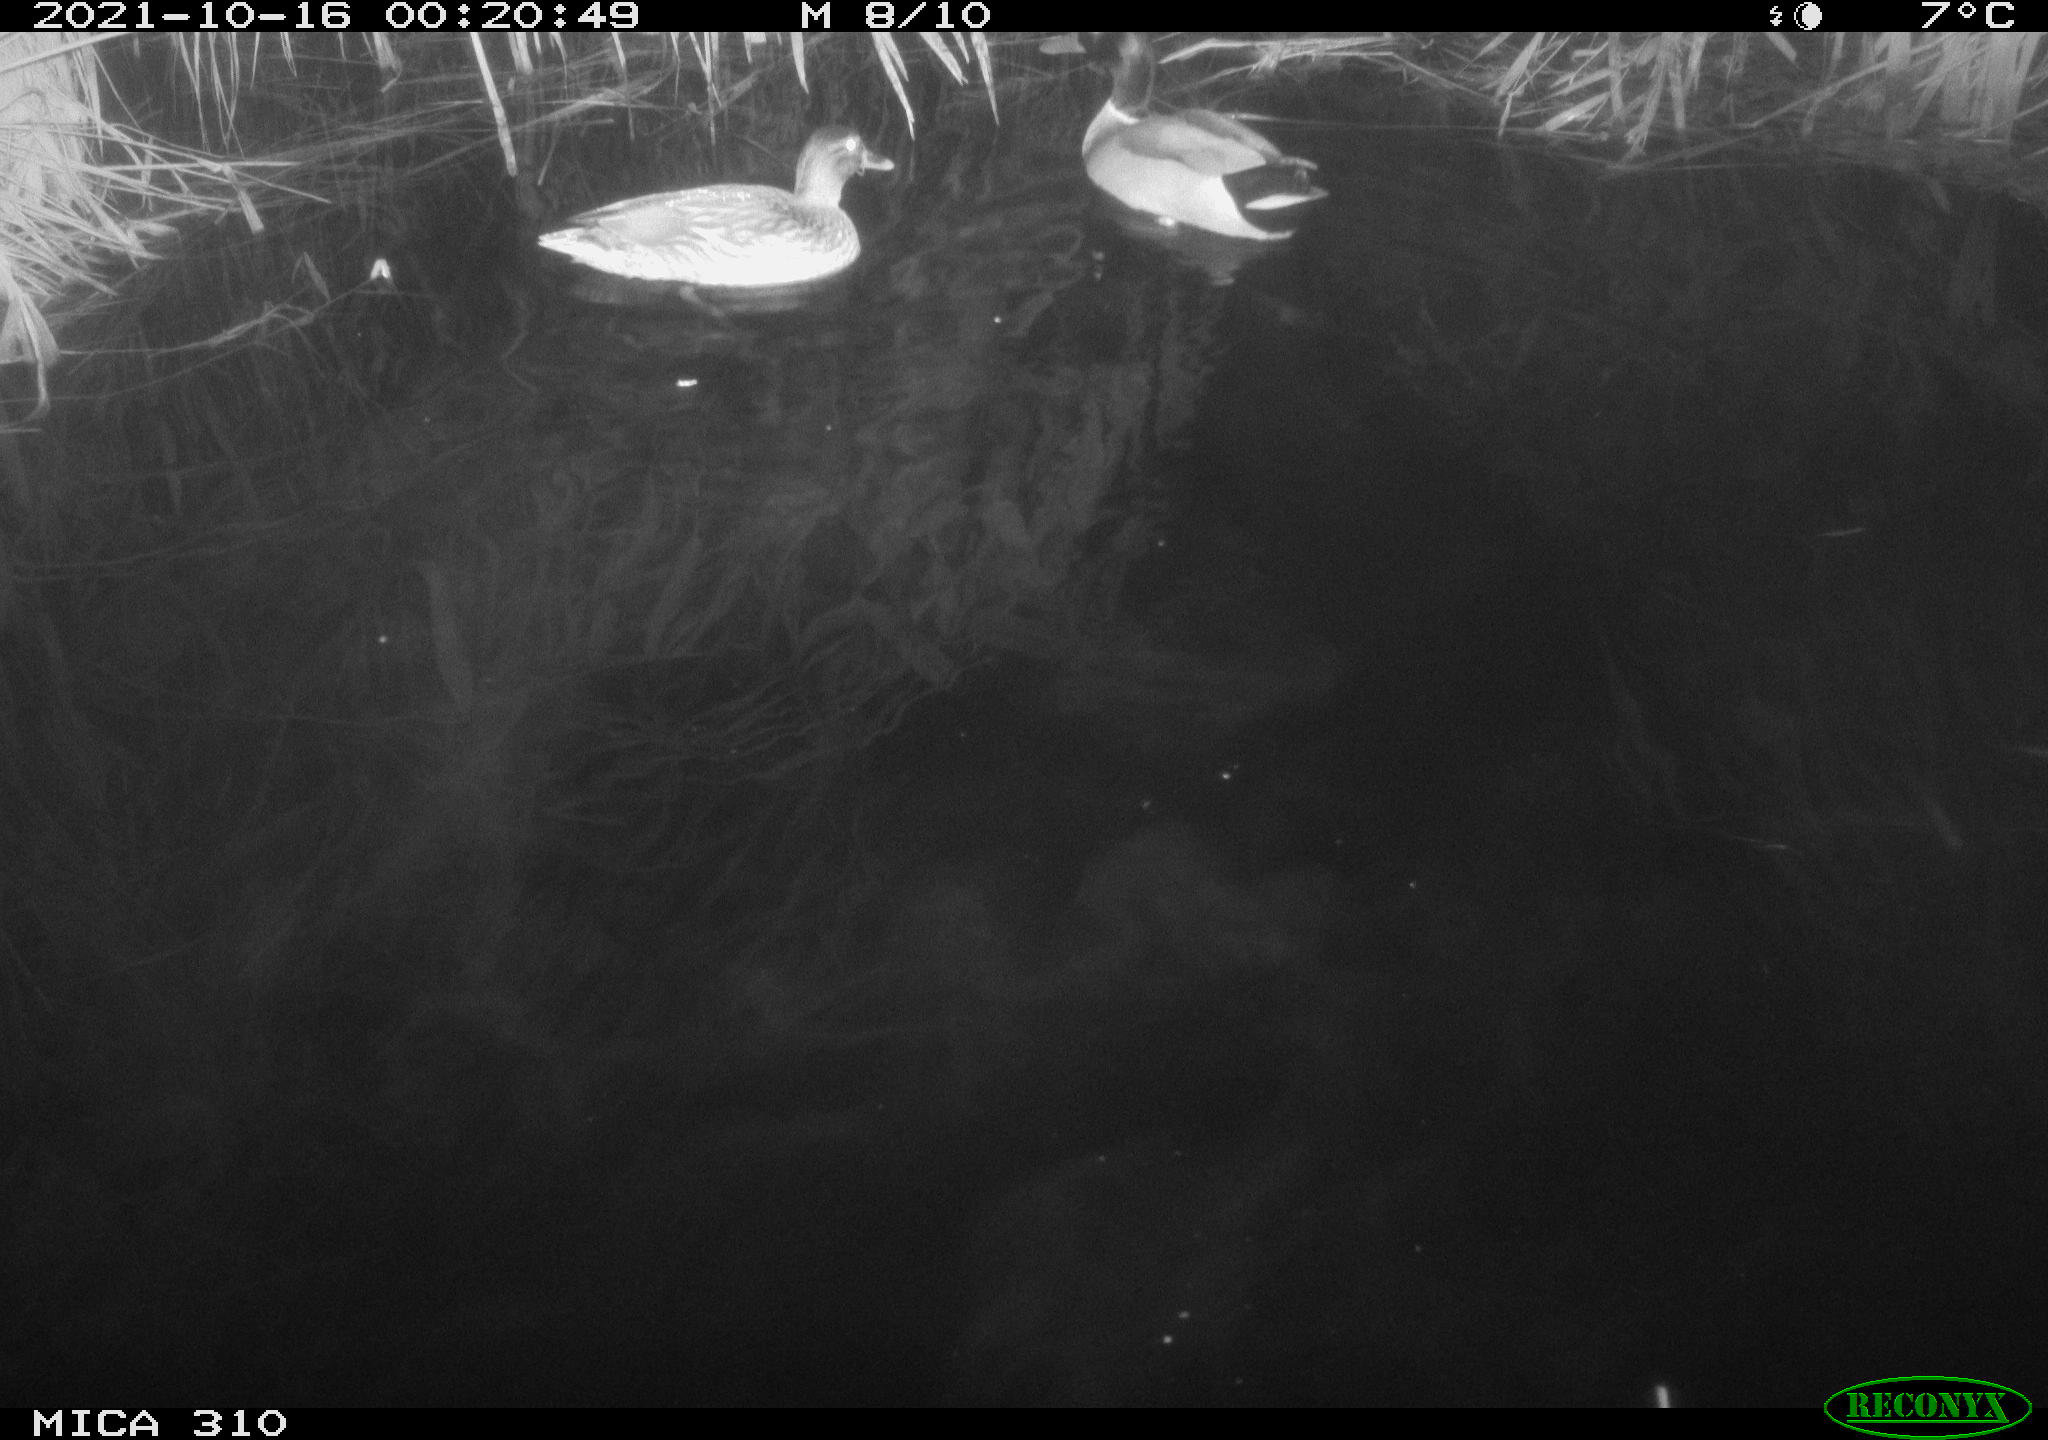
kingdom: Animalia
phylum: Chordata
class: Aves
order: Anseriformes
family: Anatidae
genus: Anas
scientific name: Anas platyrhynchos
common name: Mallard
